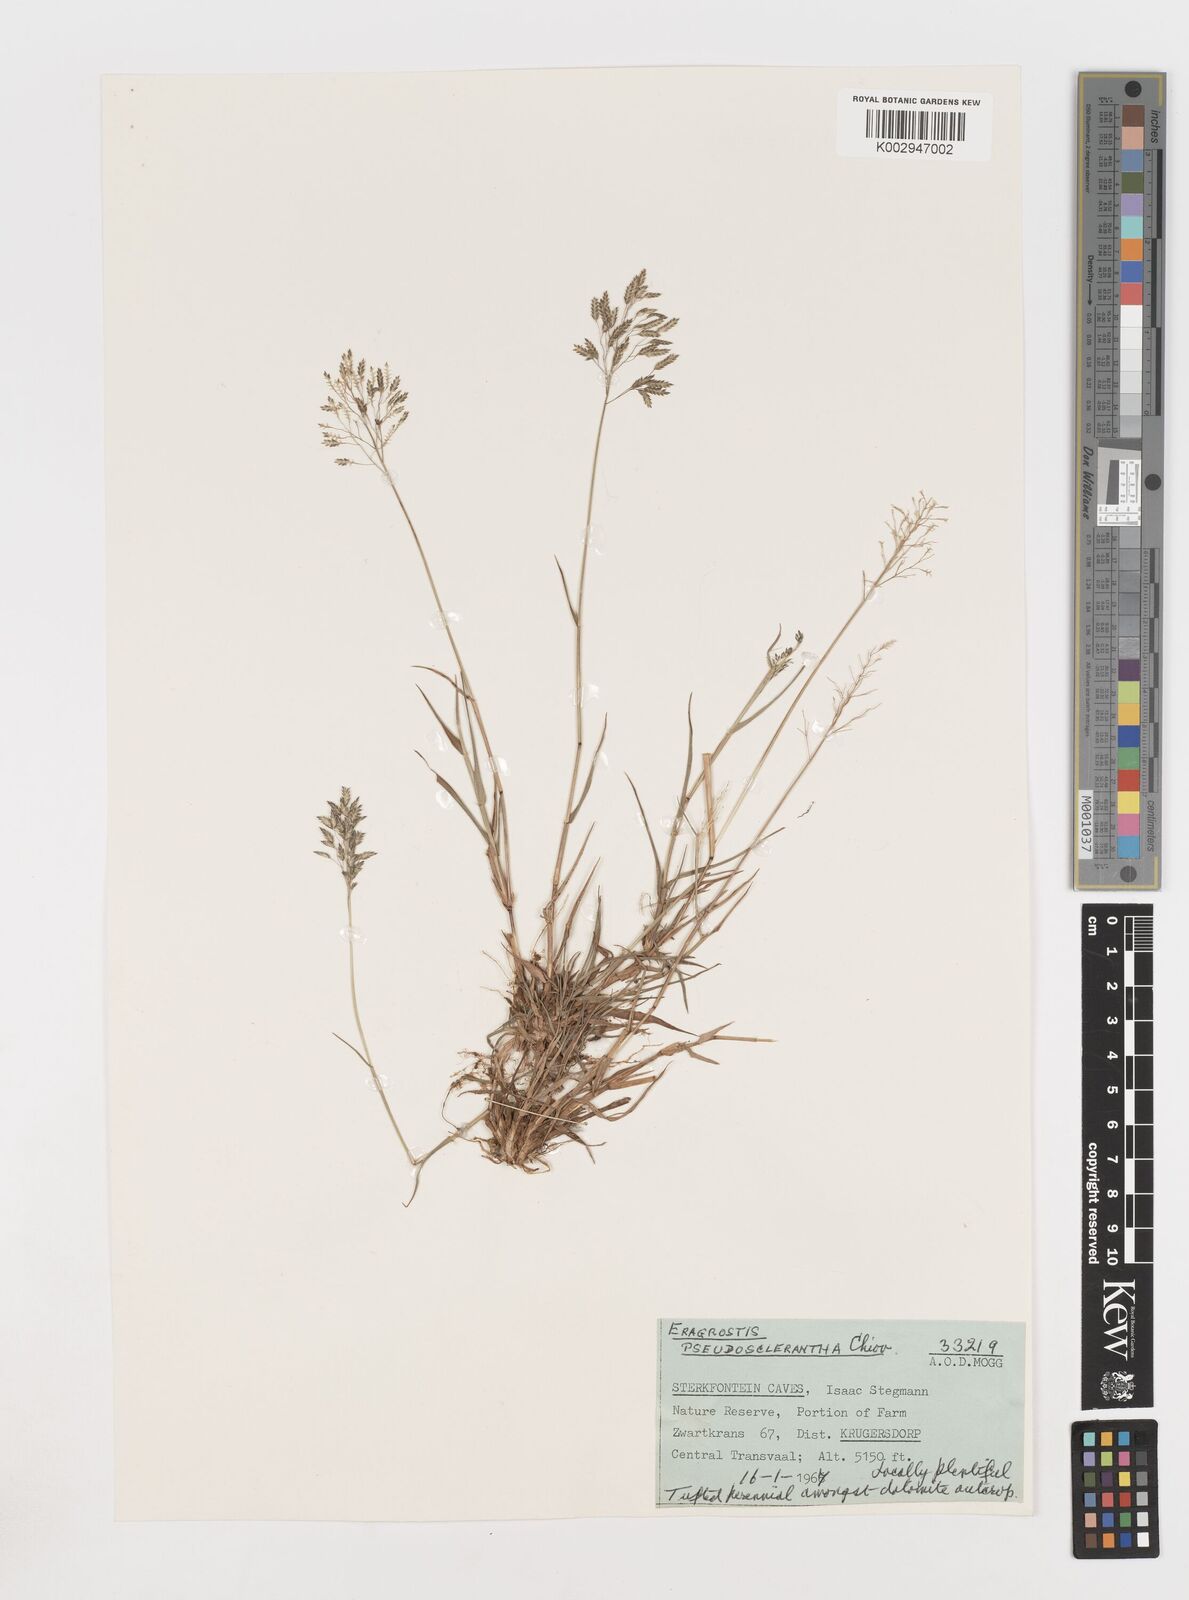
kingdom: Plantae
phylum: Tracheophyta
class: Liliopsida
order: Poales
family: Poaceae
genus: Eragrostis
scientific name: Eragrostis patentipilosa
